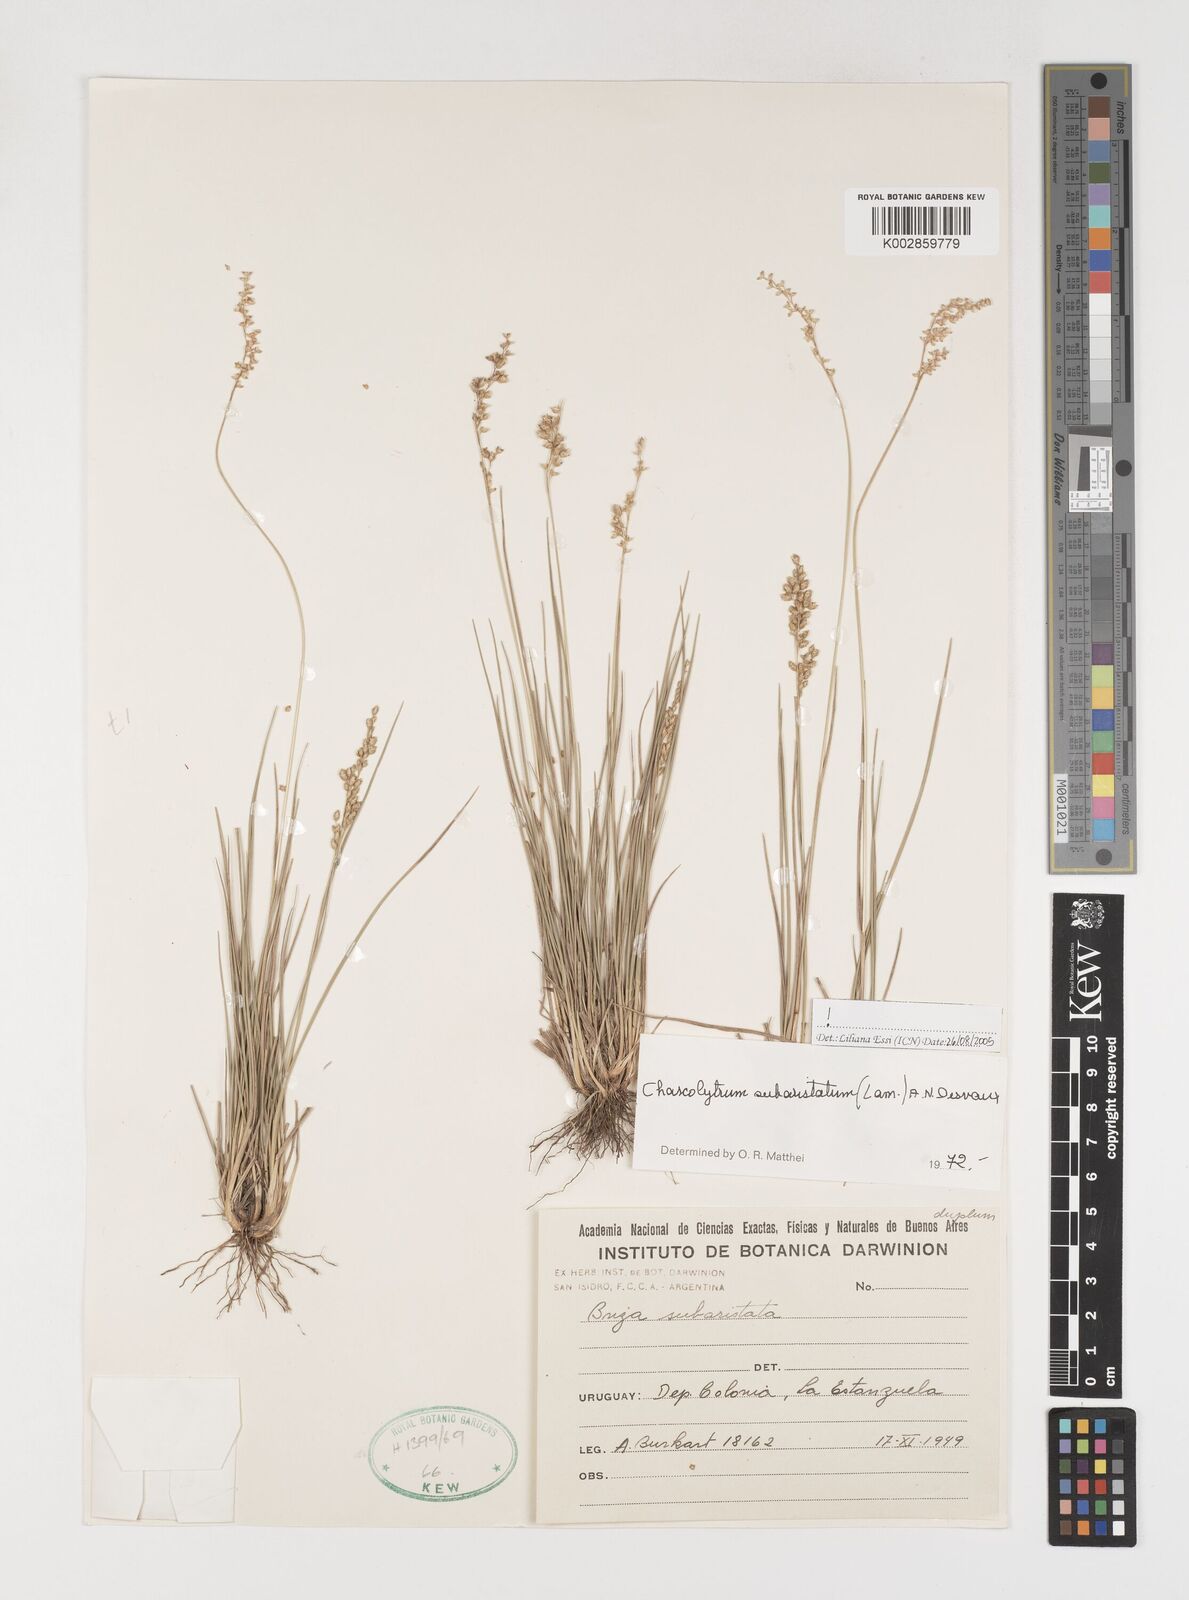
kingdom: Plantae
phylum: Tracheophyta
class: Liliopsida
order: Poales
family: Poaceae
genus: Chascolytrum
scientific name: Chascolytrum subaristatum
